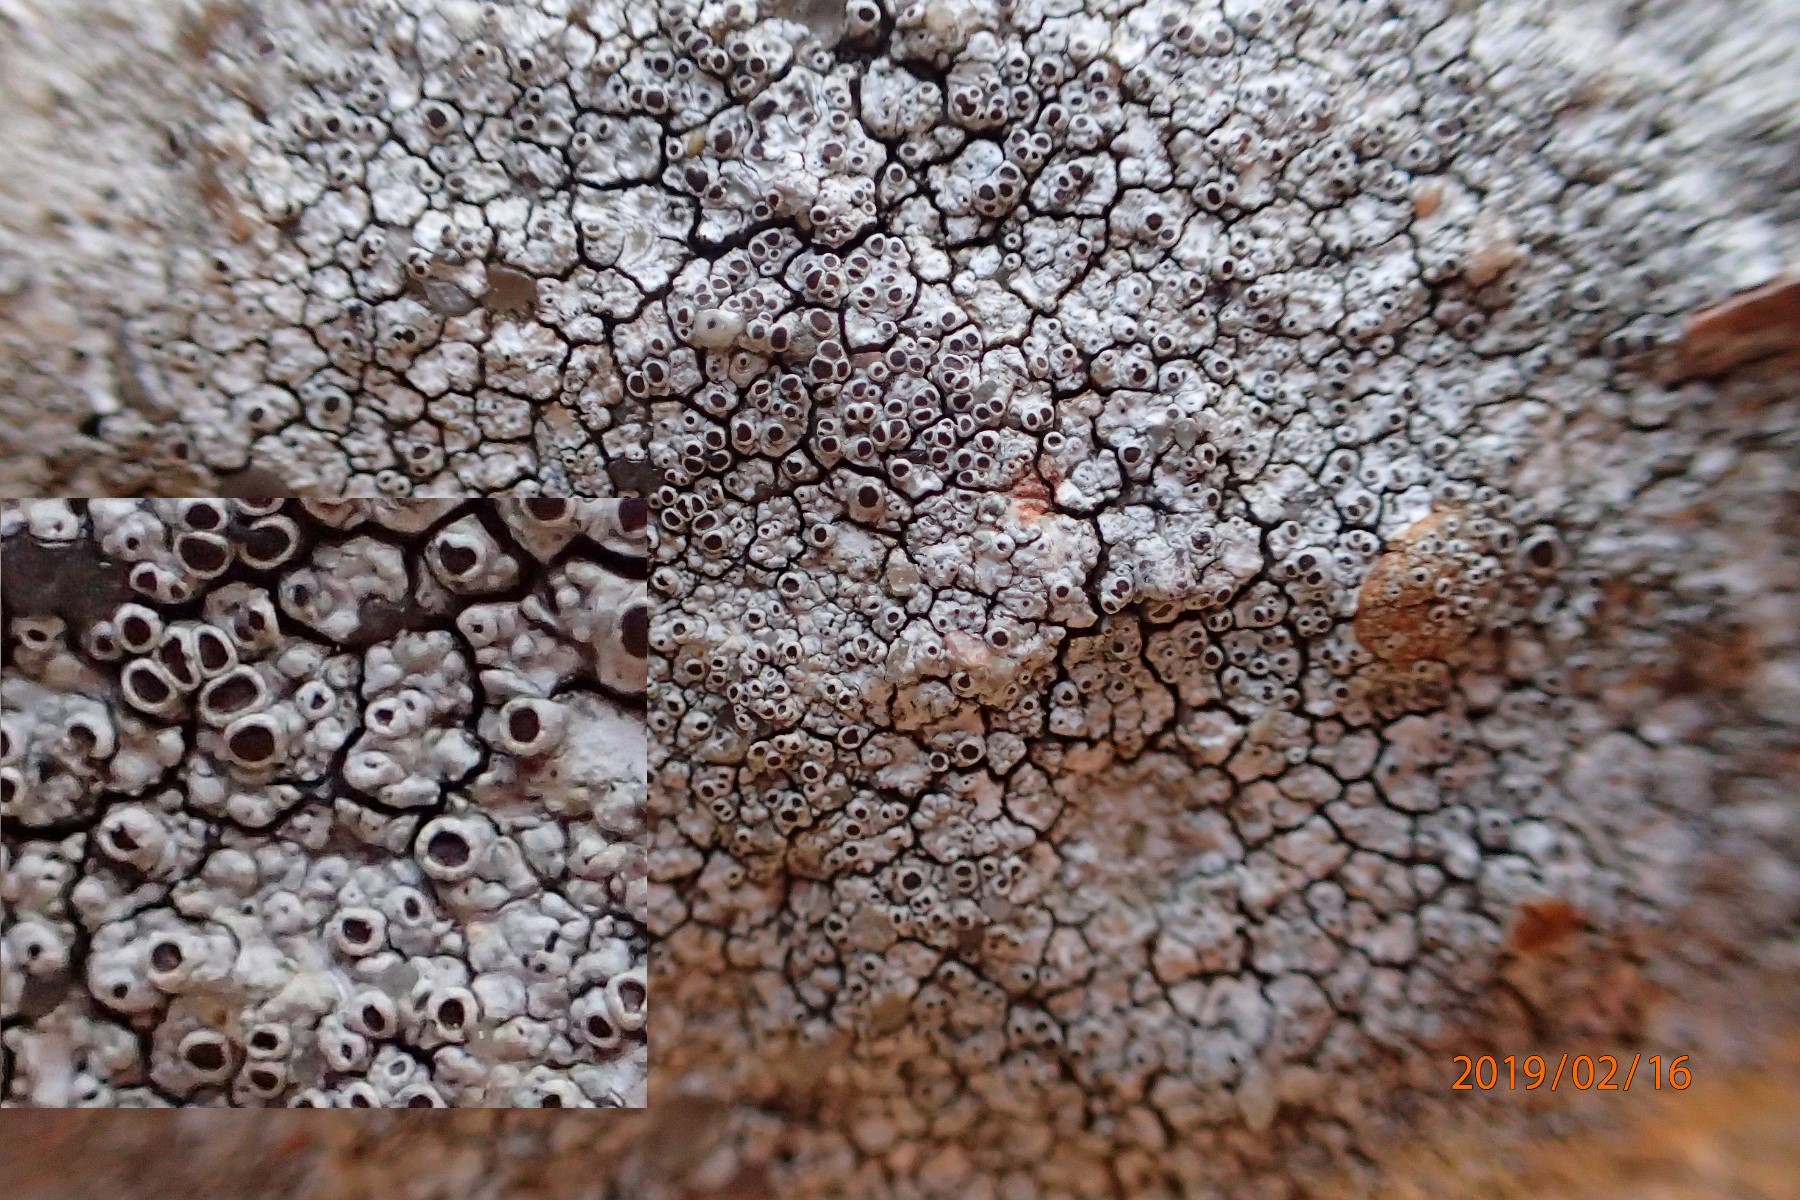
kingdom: Fungi
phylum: Ascomycota
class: Lecanoromycetes
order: Lecanorales
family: Lecanoraceae
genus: Lecanora
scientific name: Lecanora campestris
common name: mur-kantskivelav
